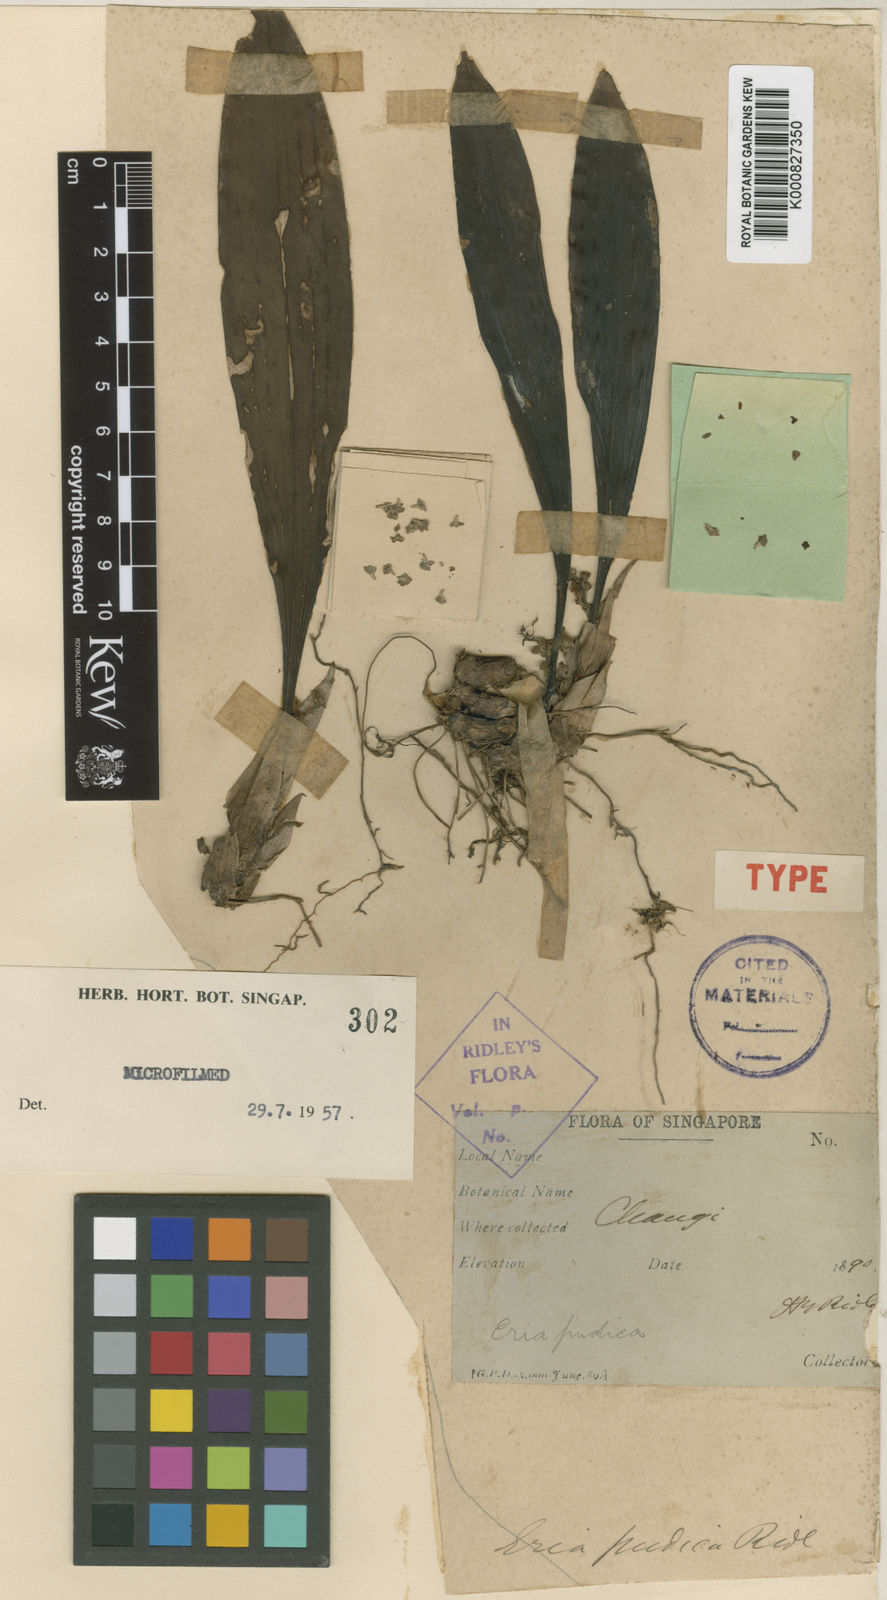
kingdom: Plantae
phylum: Tracheophyta
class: Liliopsida
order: Asparagales
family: Orchidaceae
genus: Bryobium
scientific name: Bryobium pudicum
